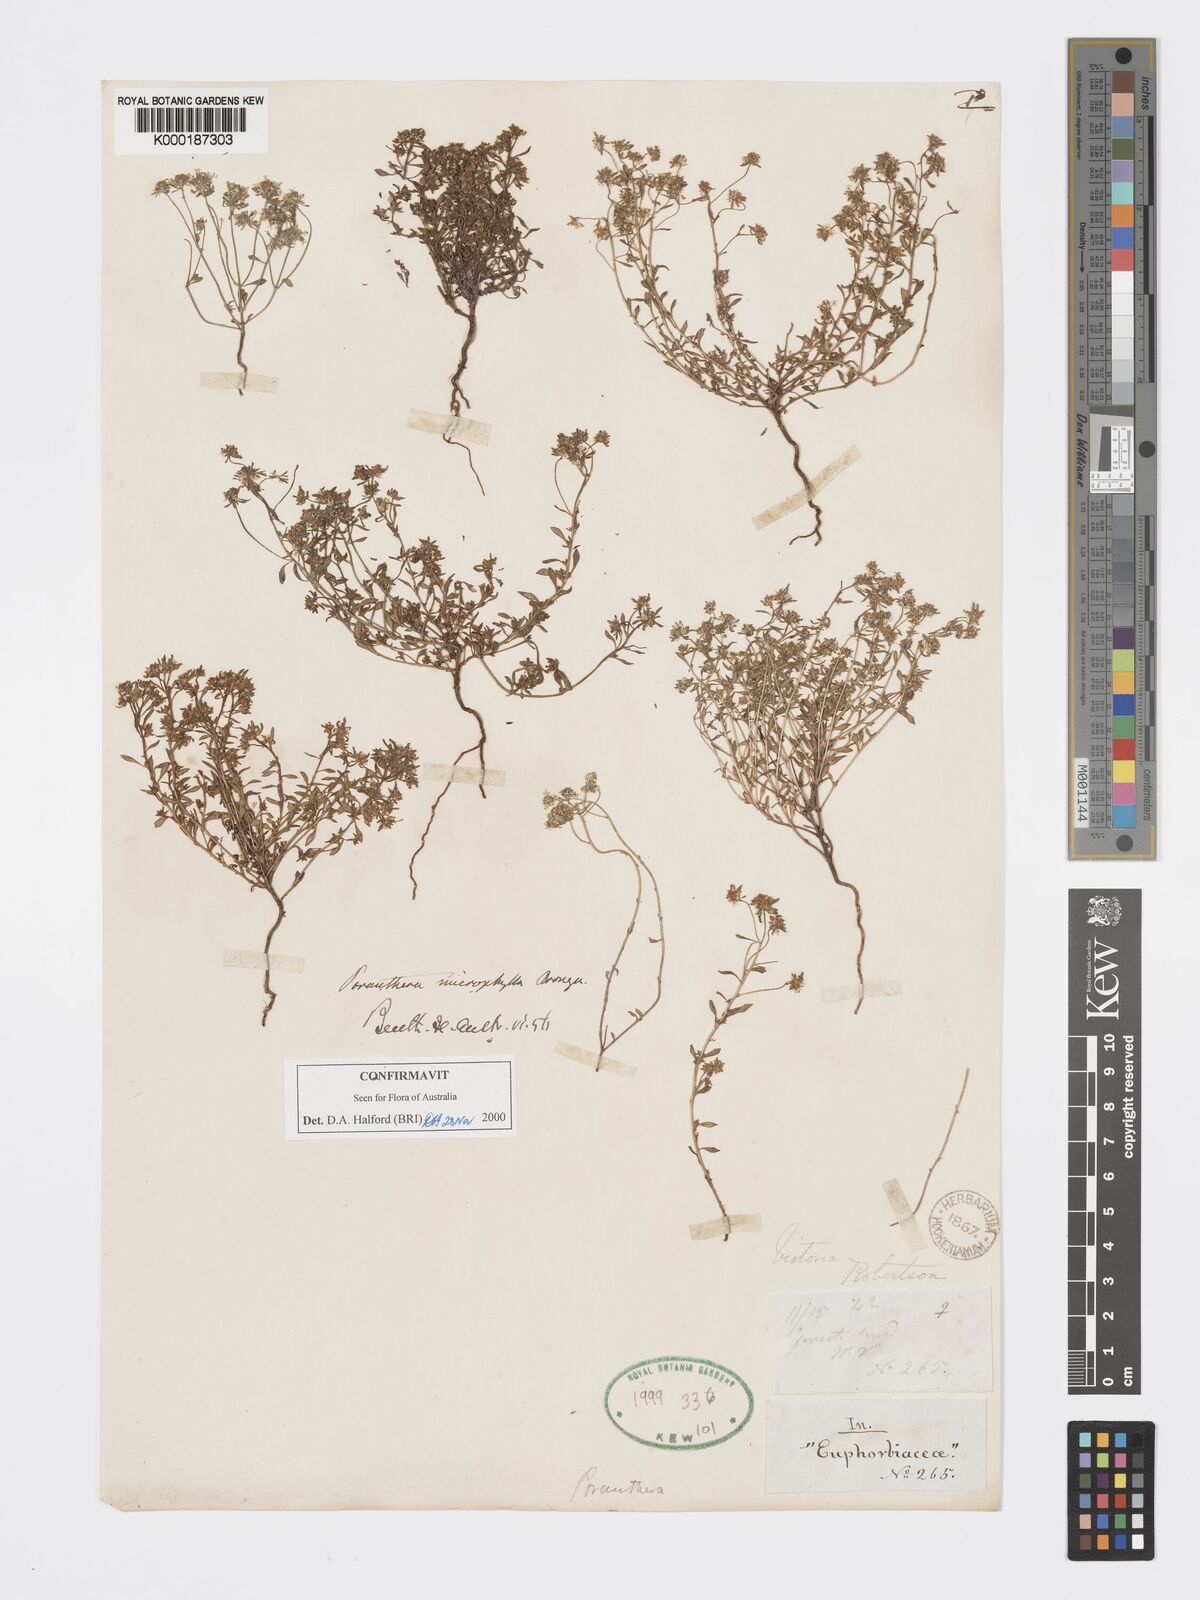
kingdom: Plantae
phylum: Tracheophyta
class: Magnoliopsida
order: Malpighiales
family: Phyllanthaceae
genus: Poranthera
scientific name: Poranthera microphylla
